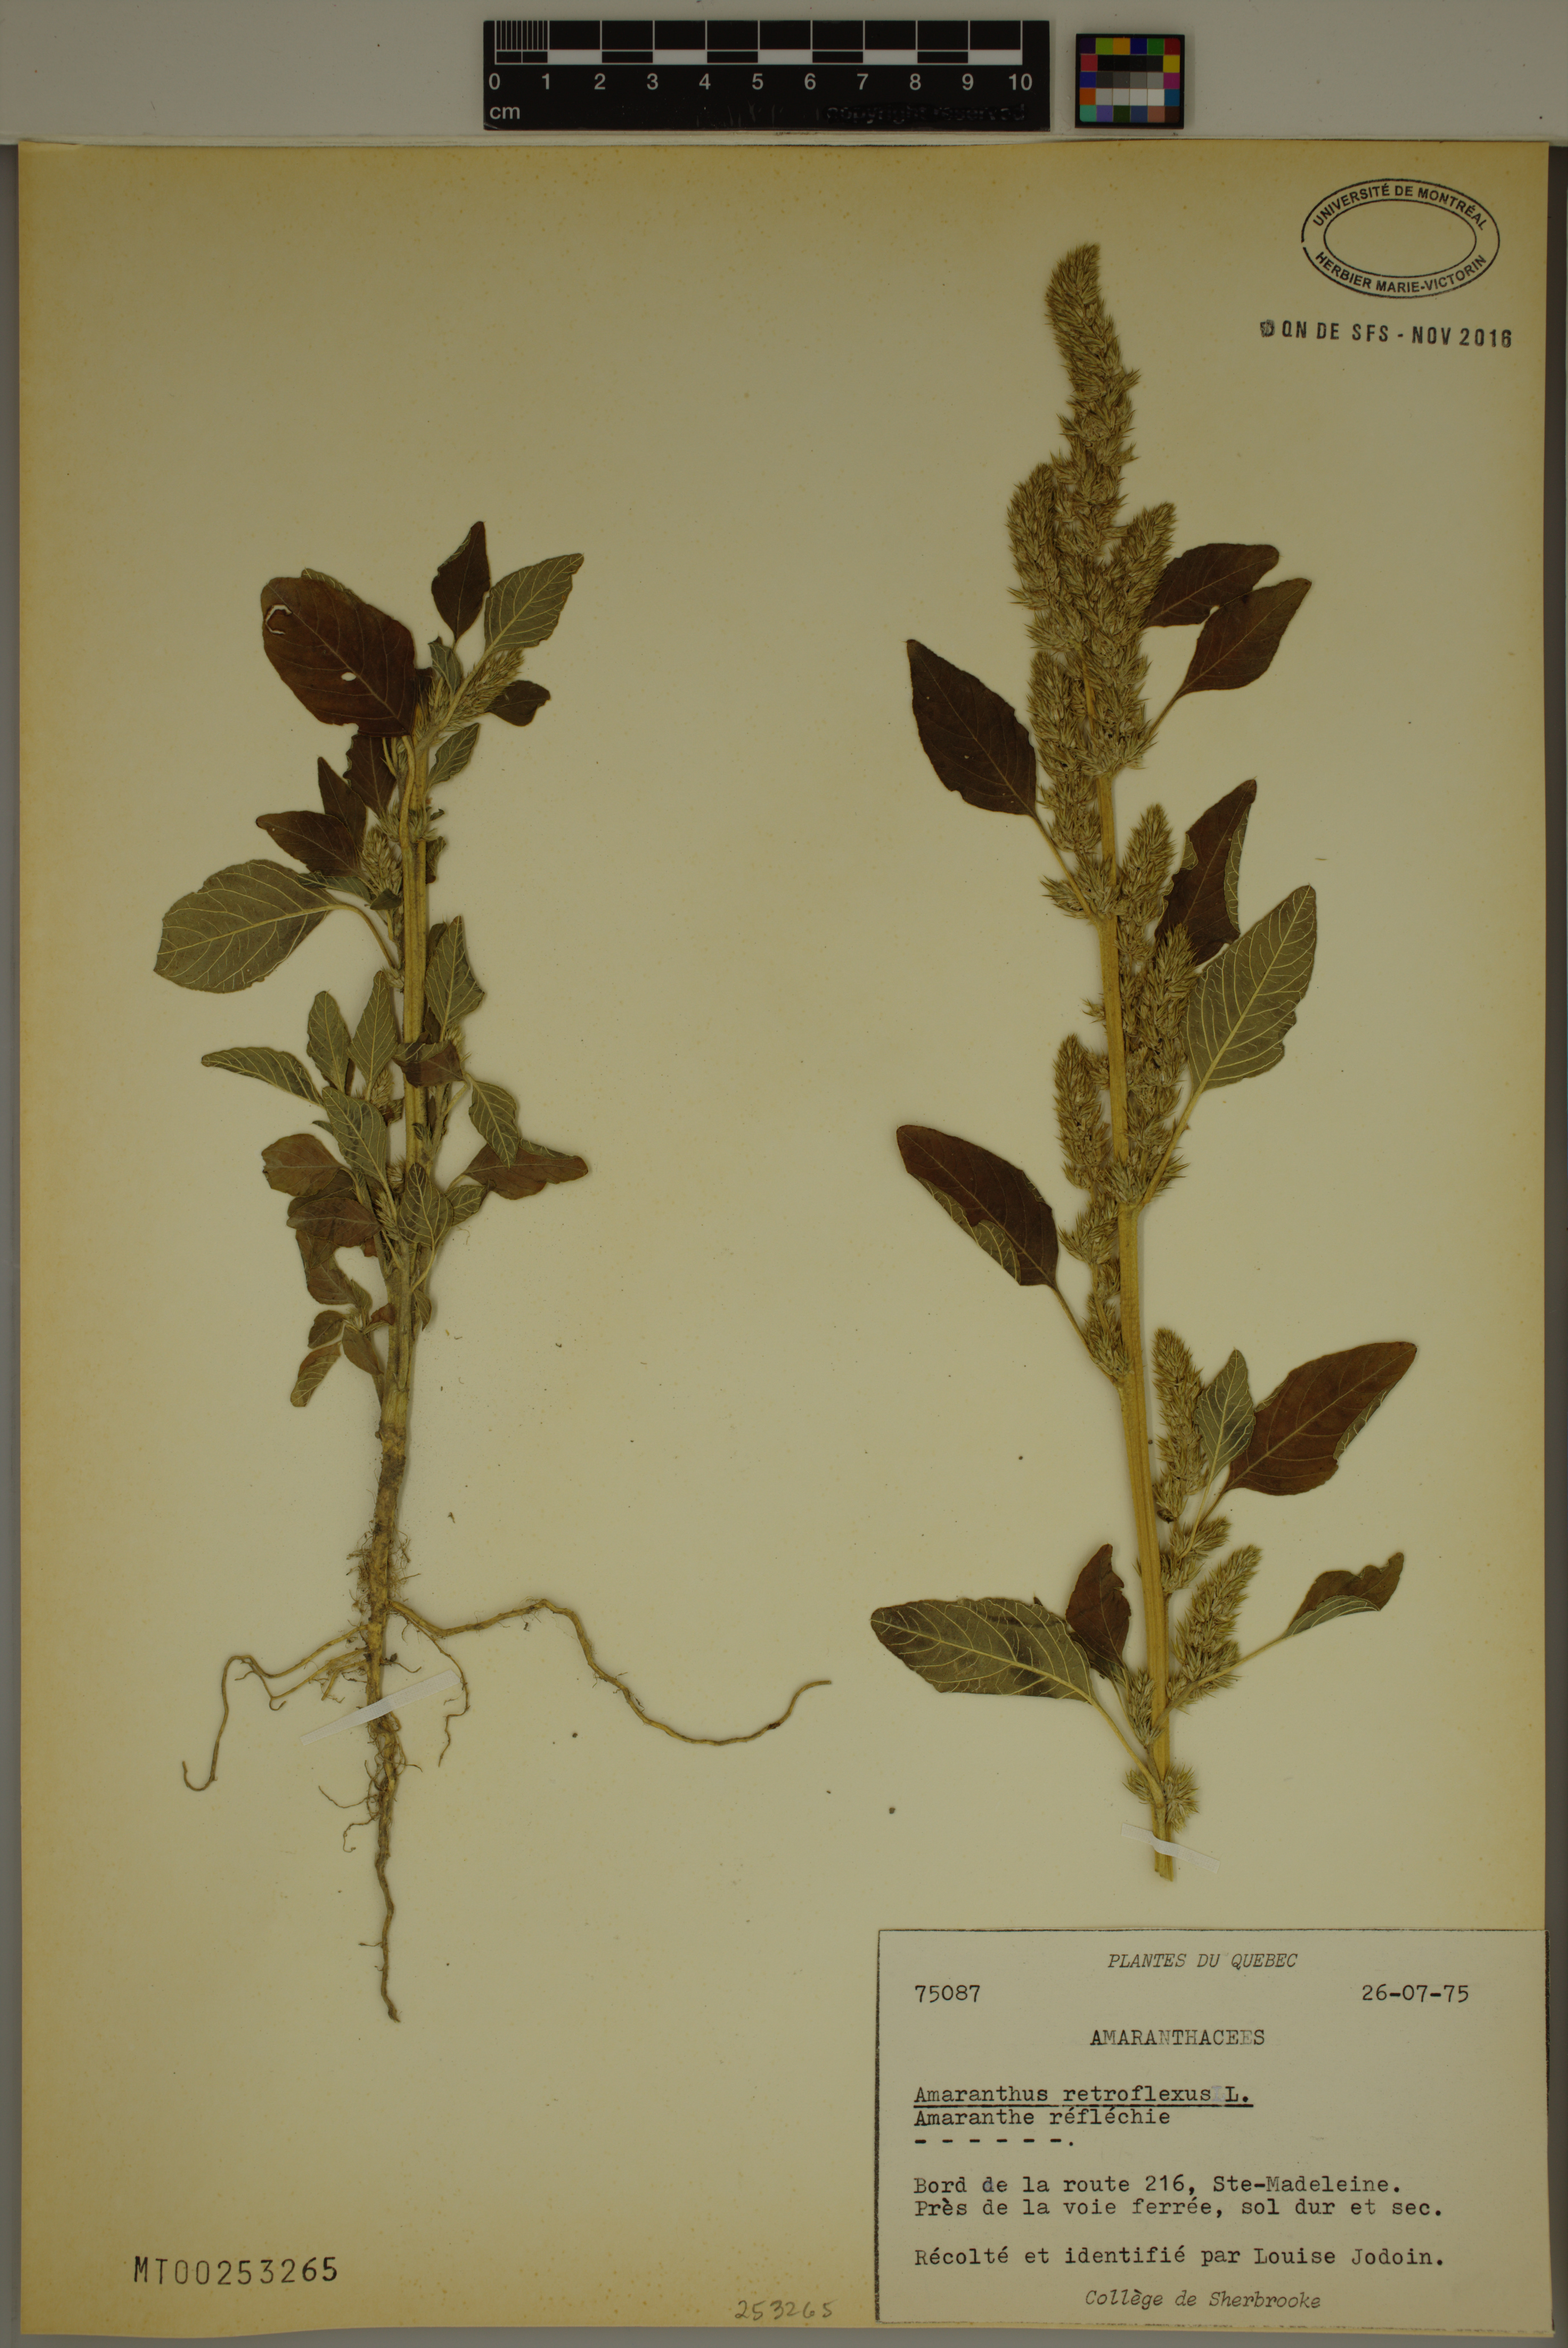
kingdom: Plantae
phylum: Tracheophyta
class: Magnoliopsida
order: Caryophyllales
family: Amaranthaceae
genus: Amaranthus
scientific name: Amaranthus retroflexus
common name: Redroot amaranth
